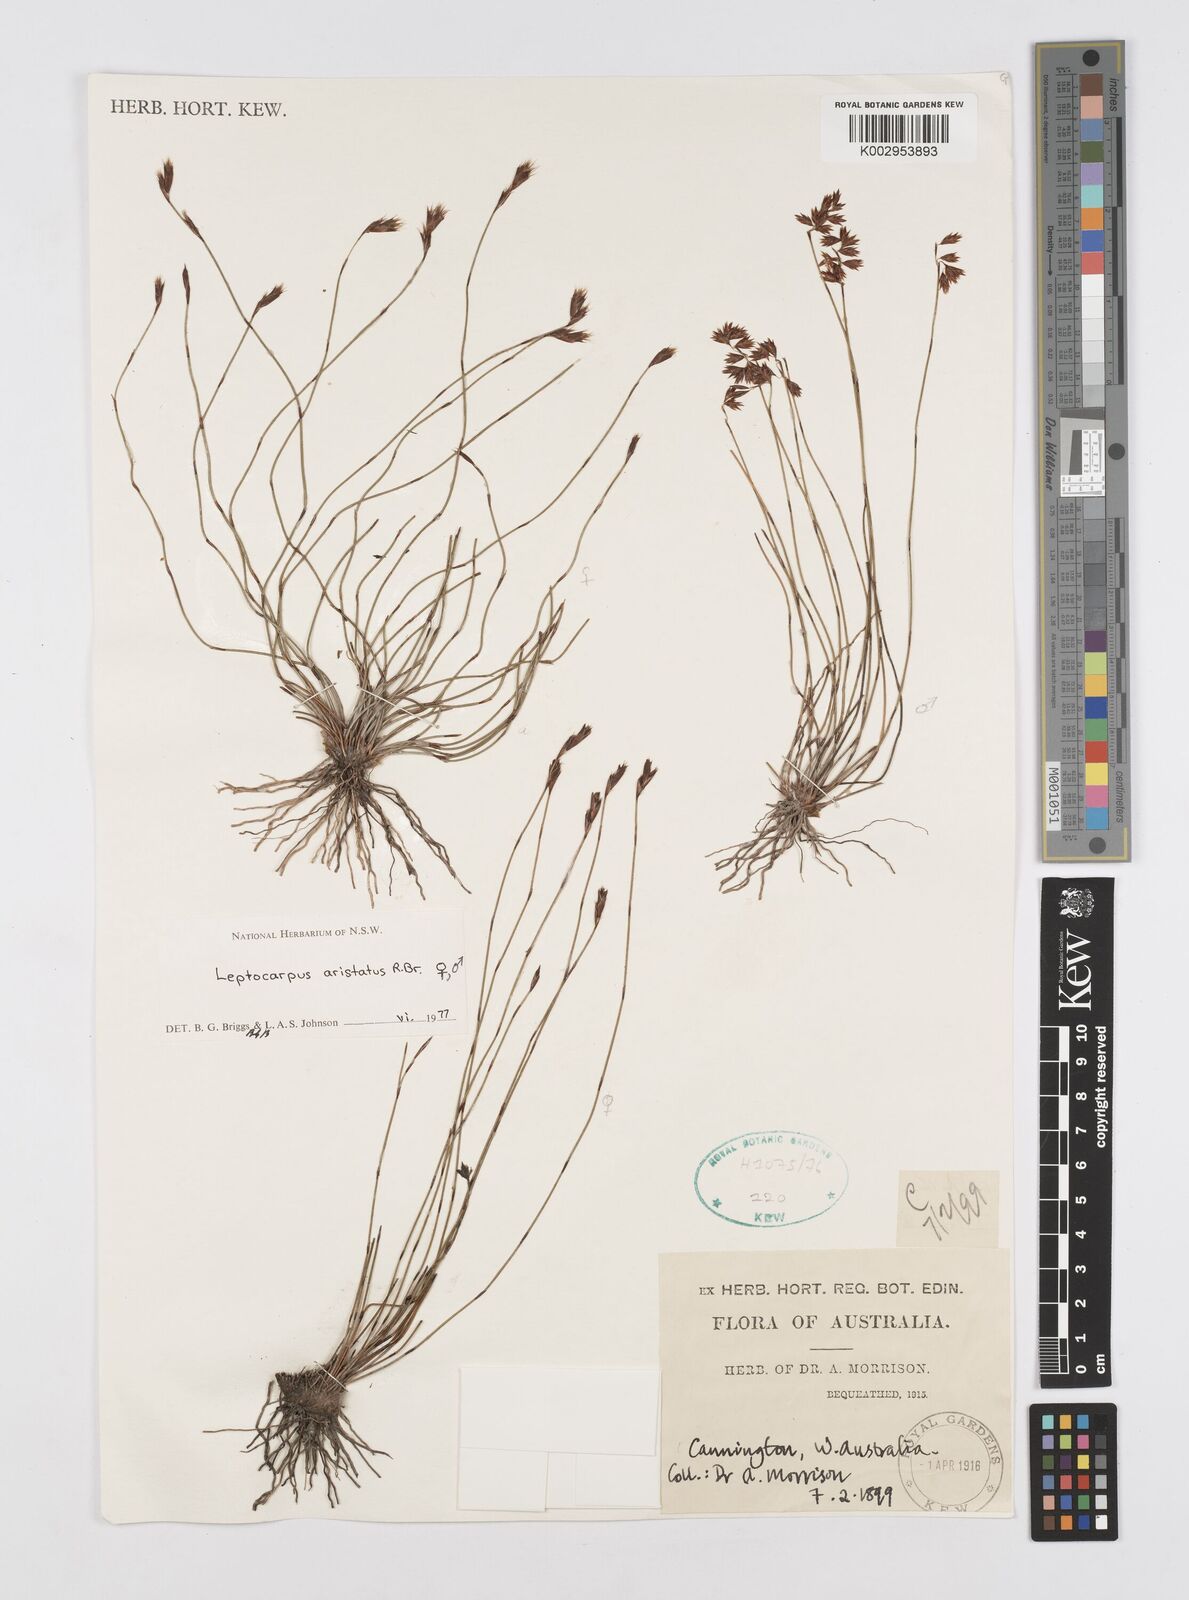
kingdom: Plantae
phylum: Tracheophyta
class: Liliopsida
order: Poales
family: Restionaceae
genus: Chaetanthus
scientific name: Chaetanthus aristatus
